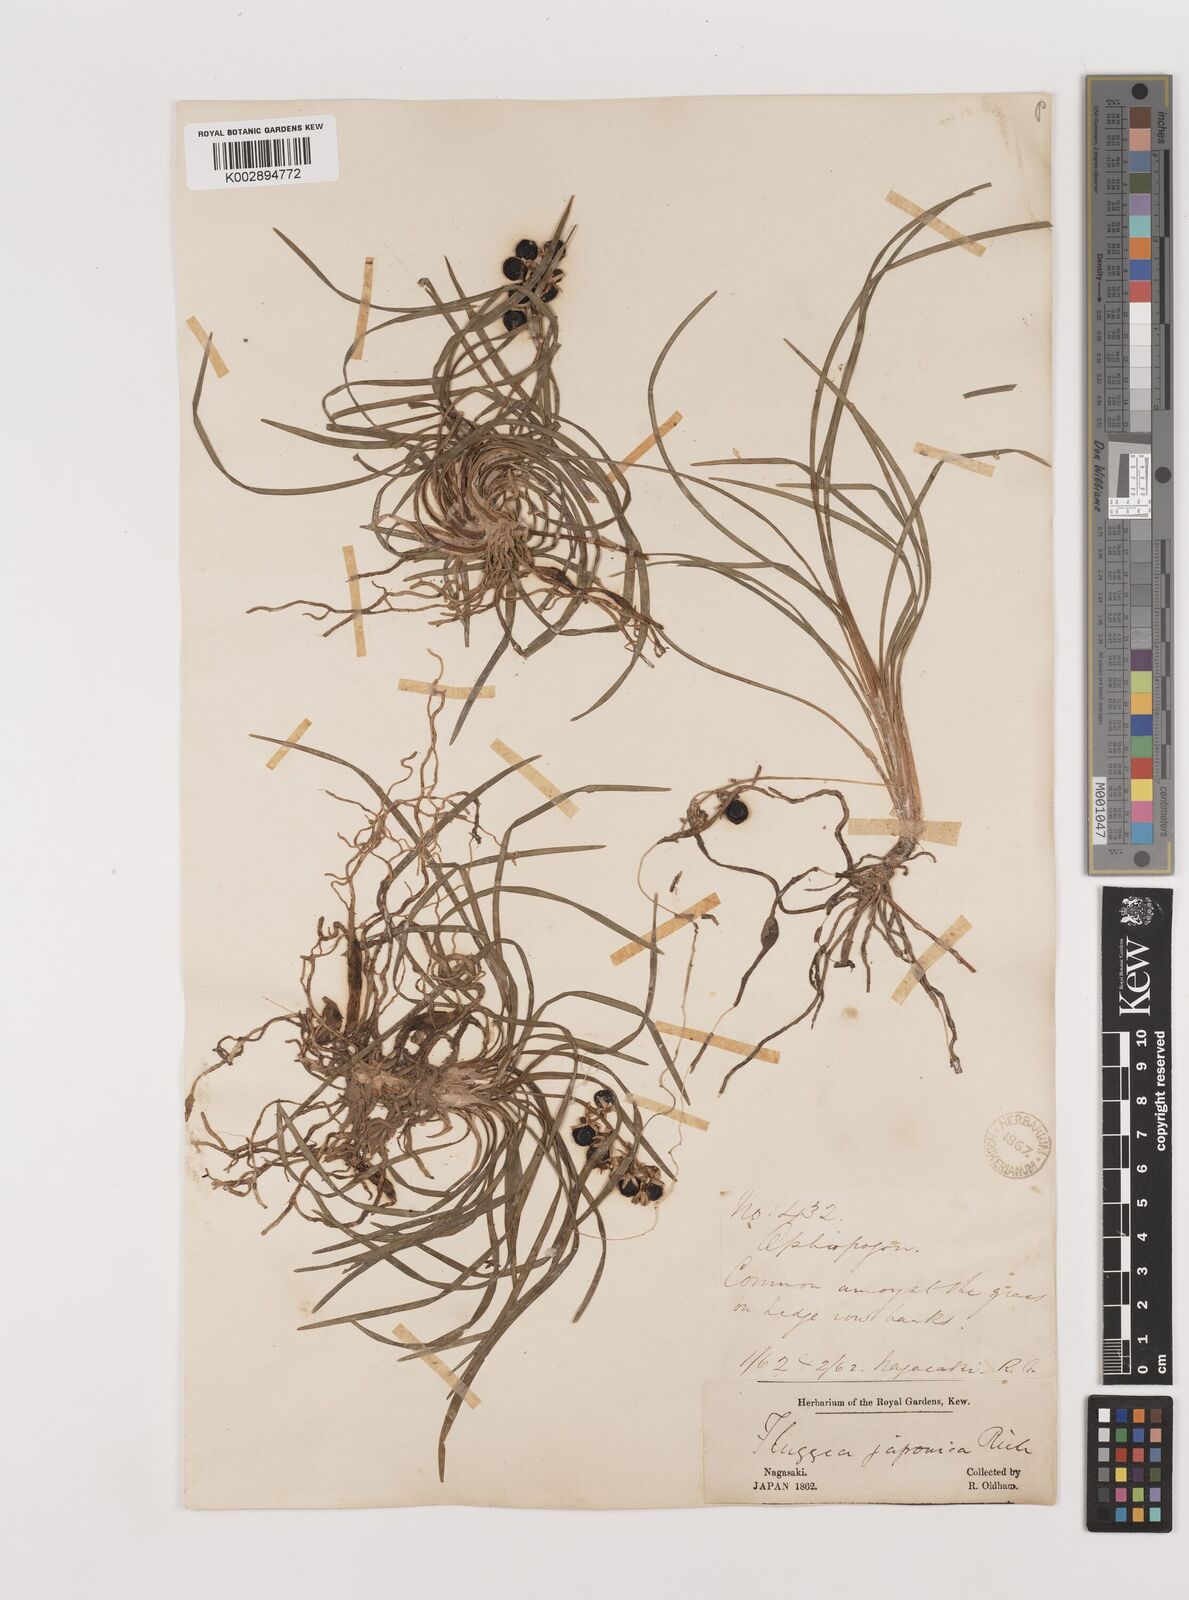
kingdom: Plantae
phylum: Tracheophyta
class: Liliopsida
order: Asparagales
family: Asparagaceae
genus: Ophiopogon
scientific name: Ophiopogon japonicus
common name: Dwarf lilyturf
